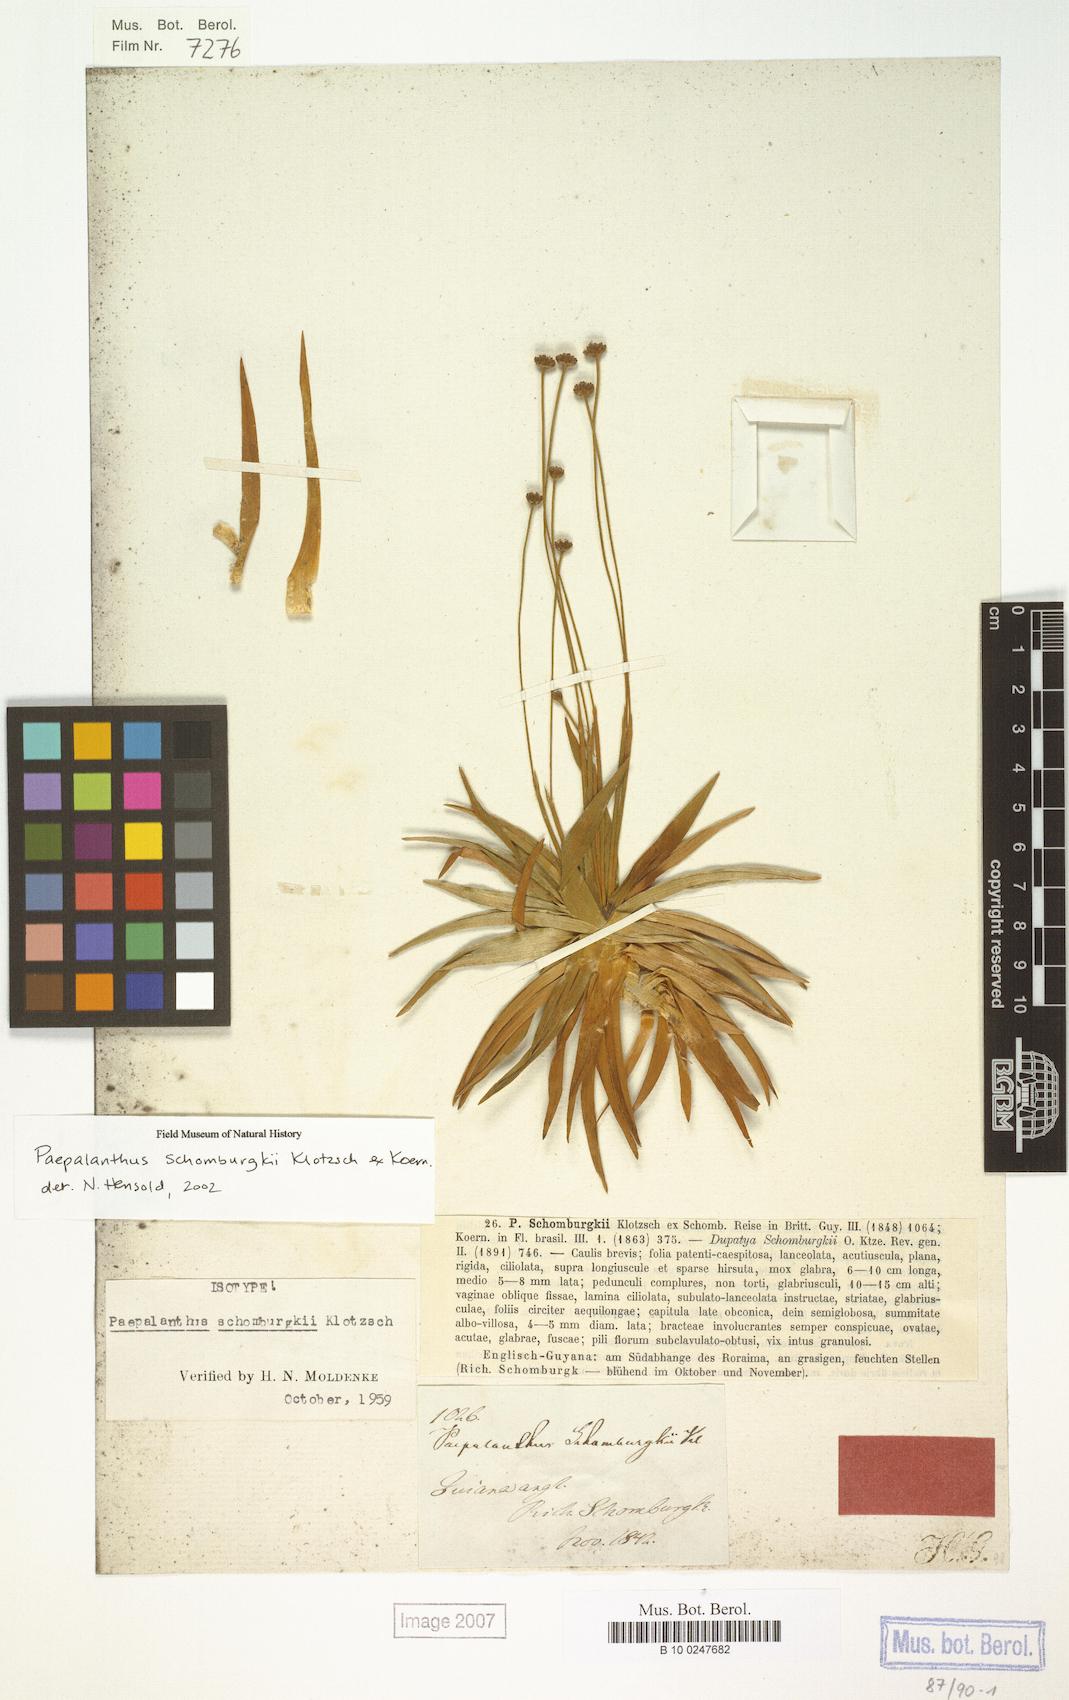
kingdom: Plantae
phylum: Tracheophyta
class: Liliopsida
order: Poales
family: Eriocaulaceae
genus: Paepalanthus
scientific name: Paepalanthus schomburgkii
